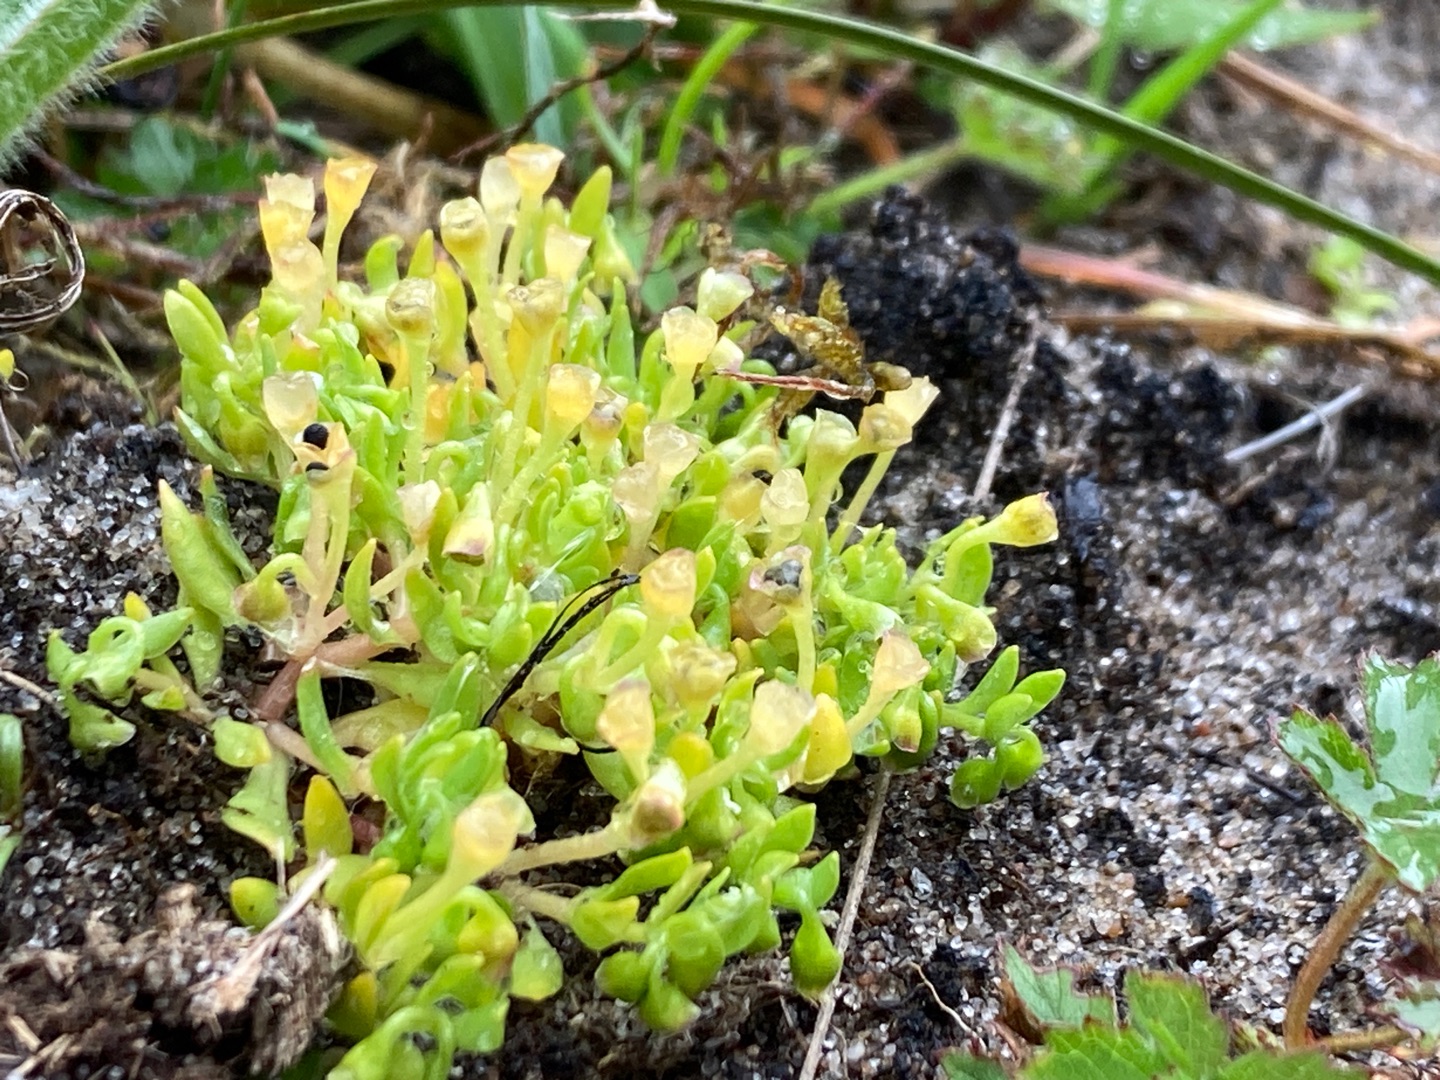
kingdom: Plantae
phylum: Tracheophyta
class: Magnoliopsida
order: Caryophyllales
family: Montiaceae
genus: Montia
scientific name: Montia arvensis
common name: Liden vandarve
